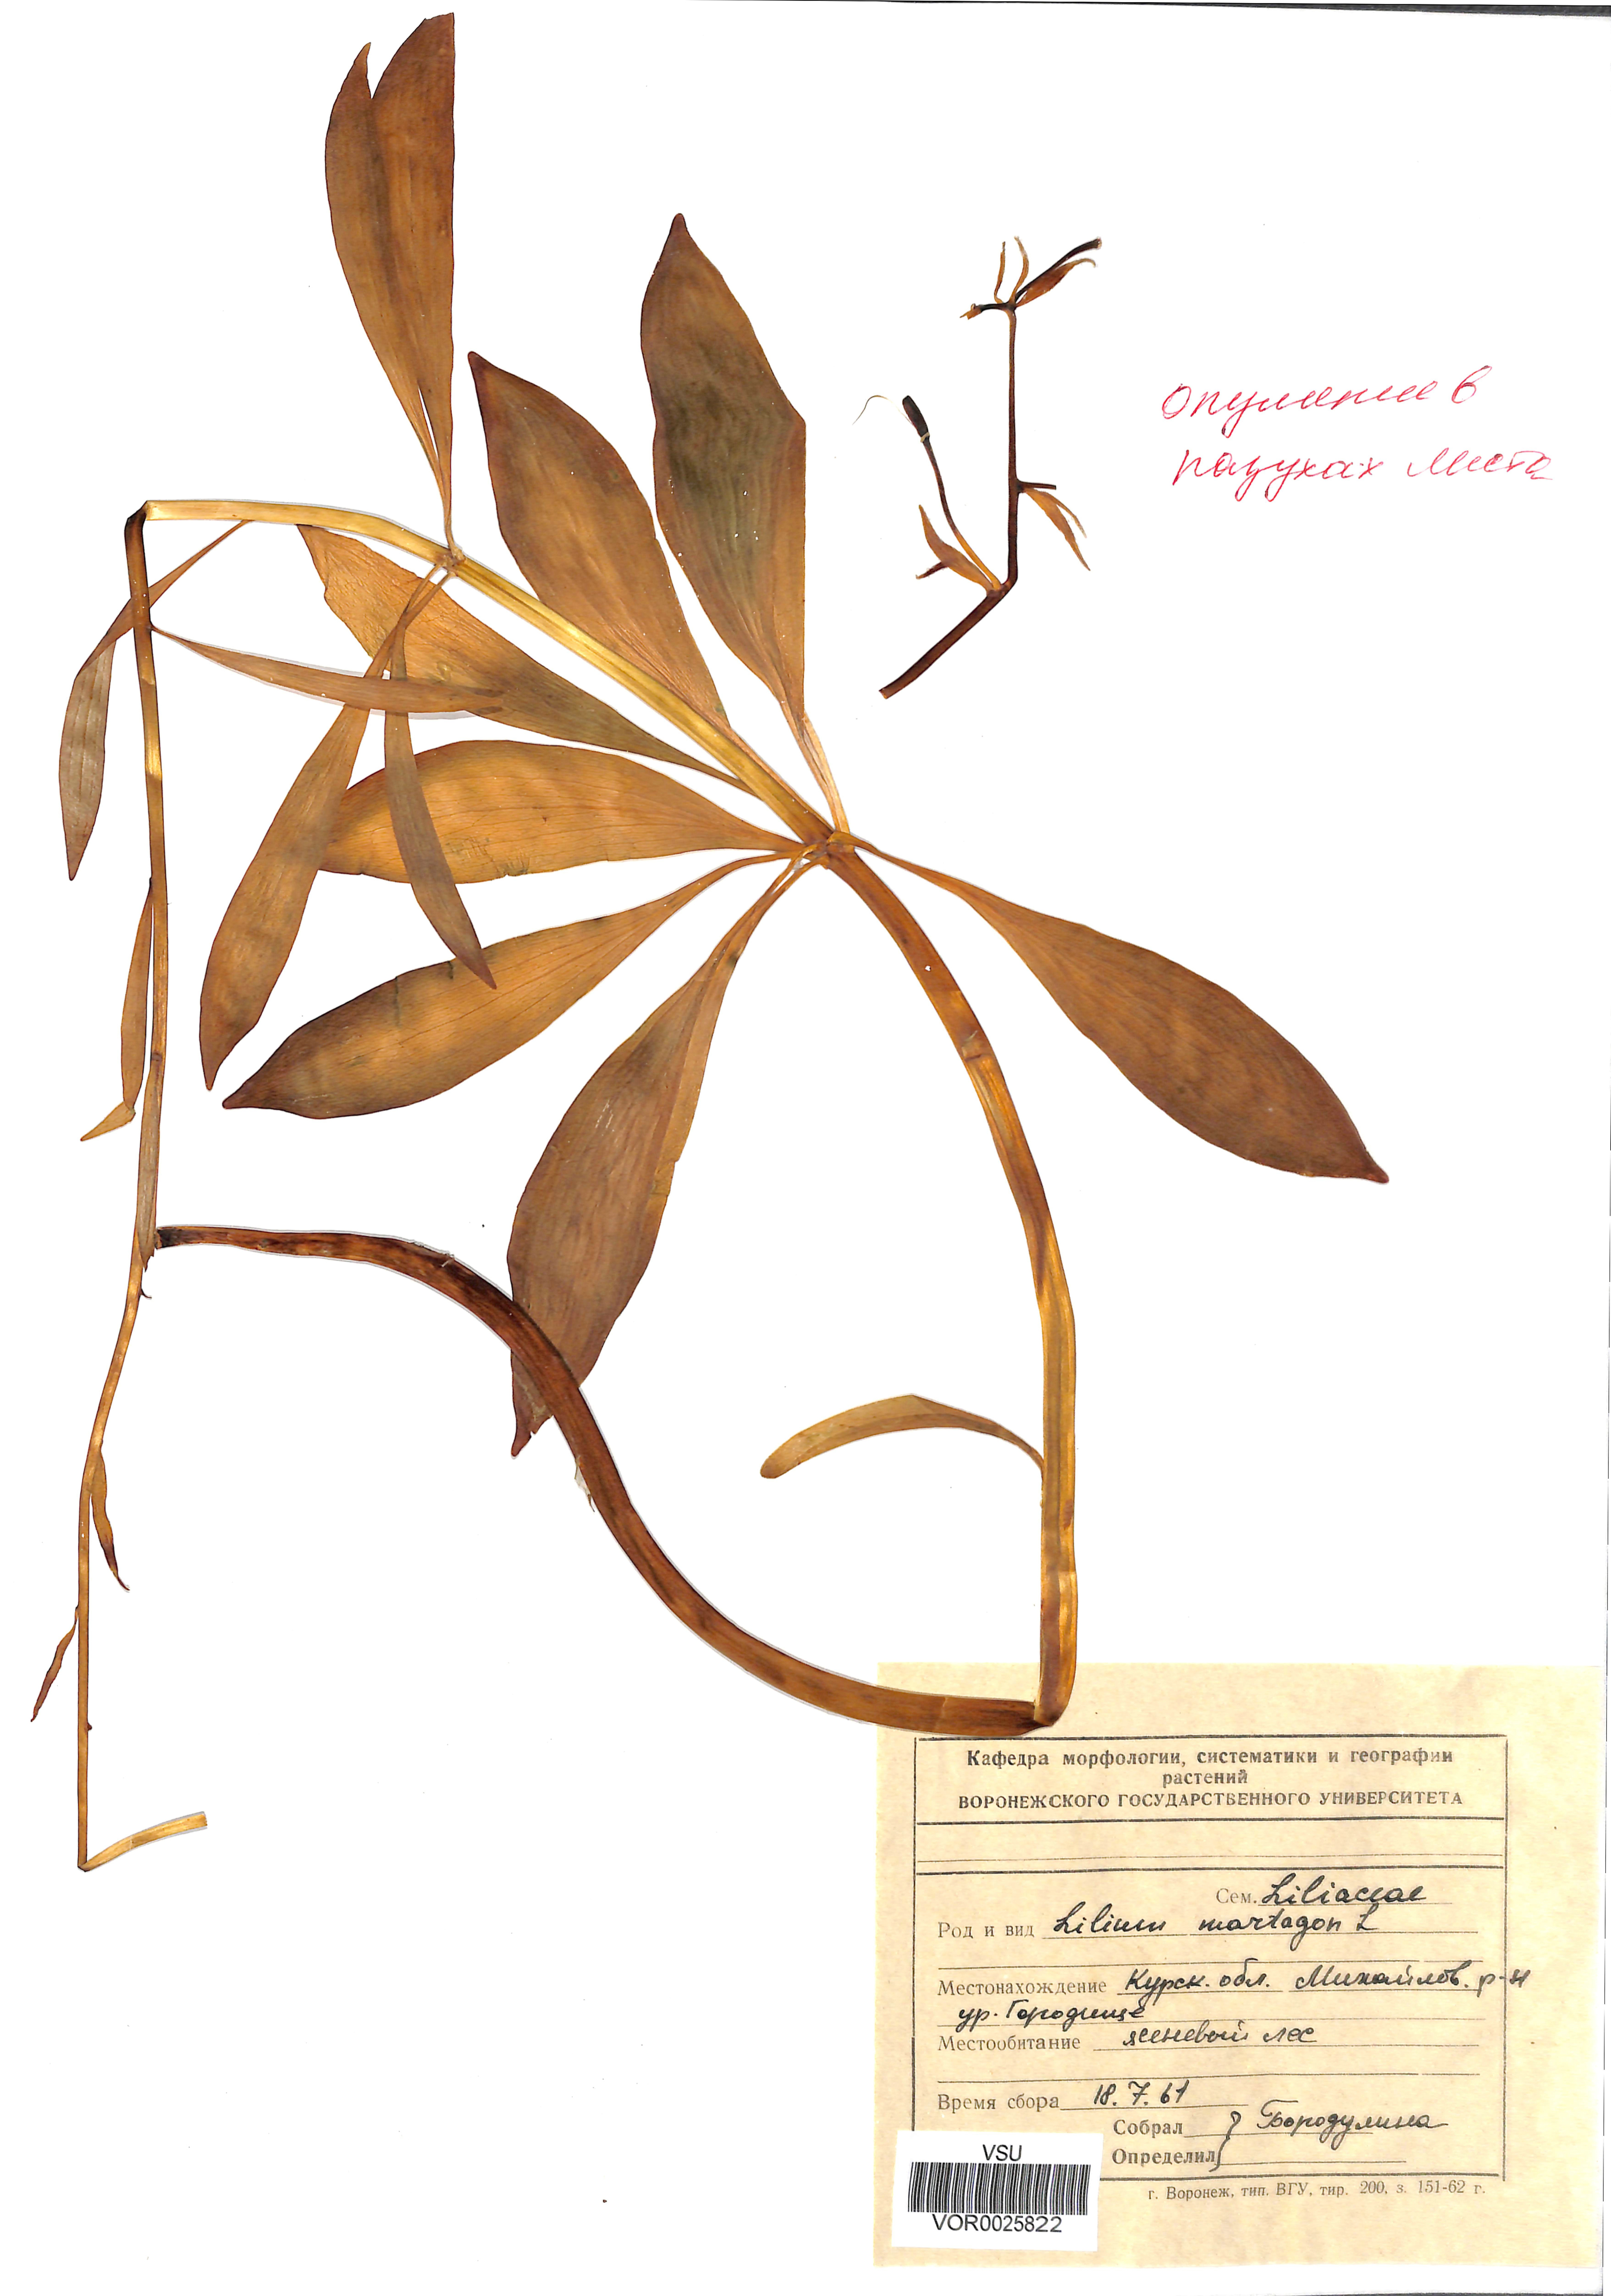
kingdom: Plantae
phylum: Tracheophyta
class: Liliopsida
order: Liliales
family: Liliaceae
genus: Lilium
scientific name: Lilium martagon
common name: Martagon lily
